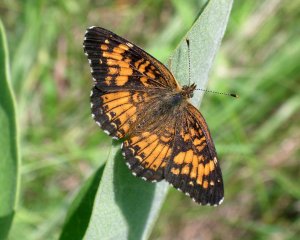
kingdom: Animalia
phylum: Arthropoda
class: Insecta
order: Lepidoptera
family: Nymphalidae
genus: Chlosyne
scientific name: Chlosyne harrisii
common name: Harris's Checkerspot
